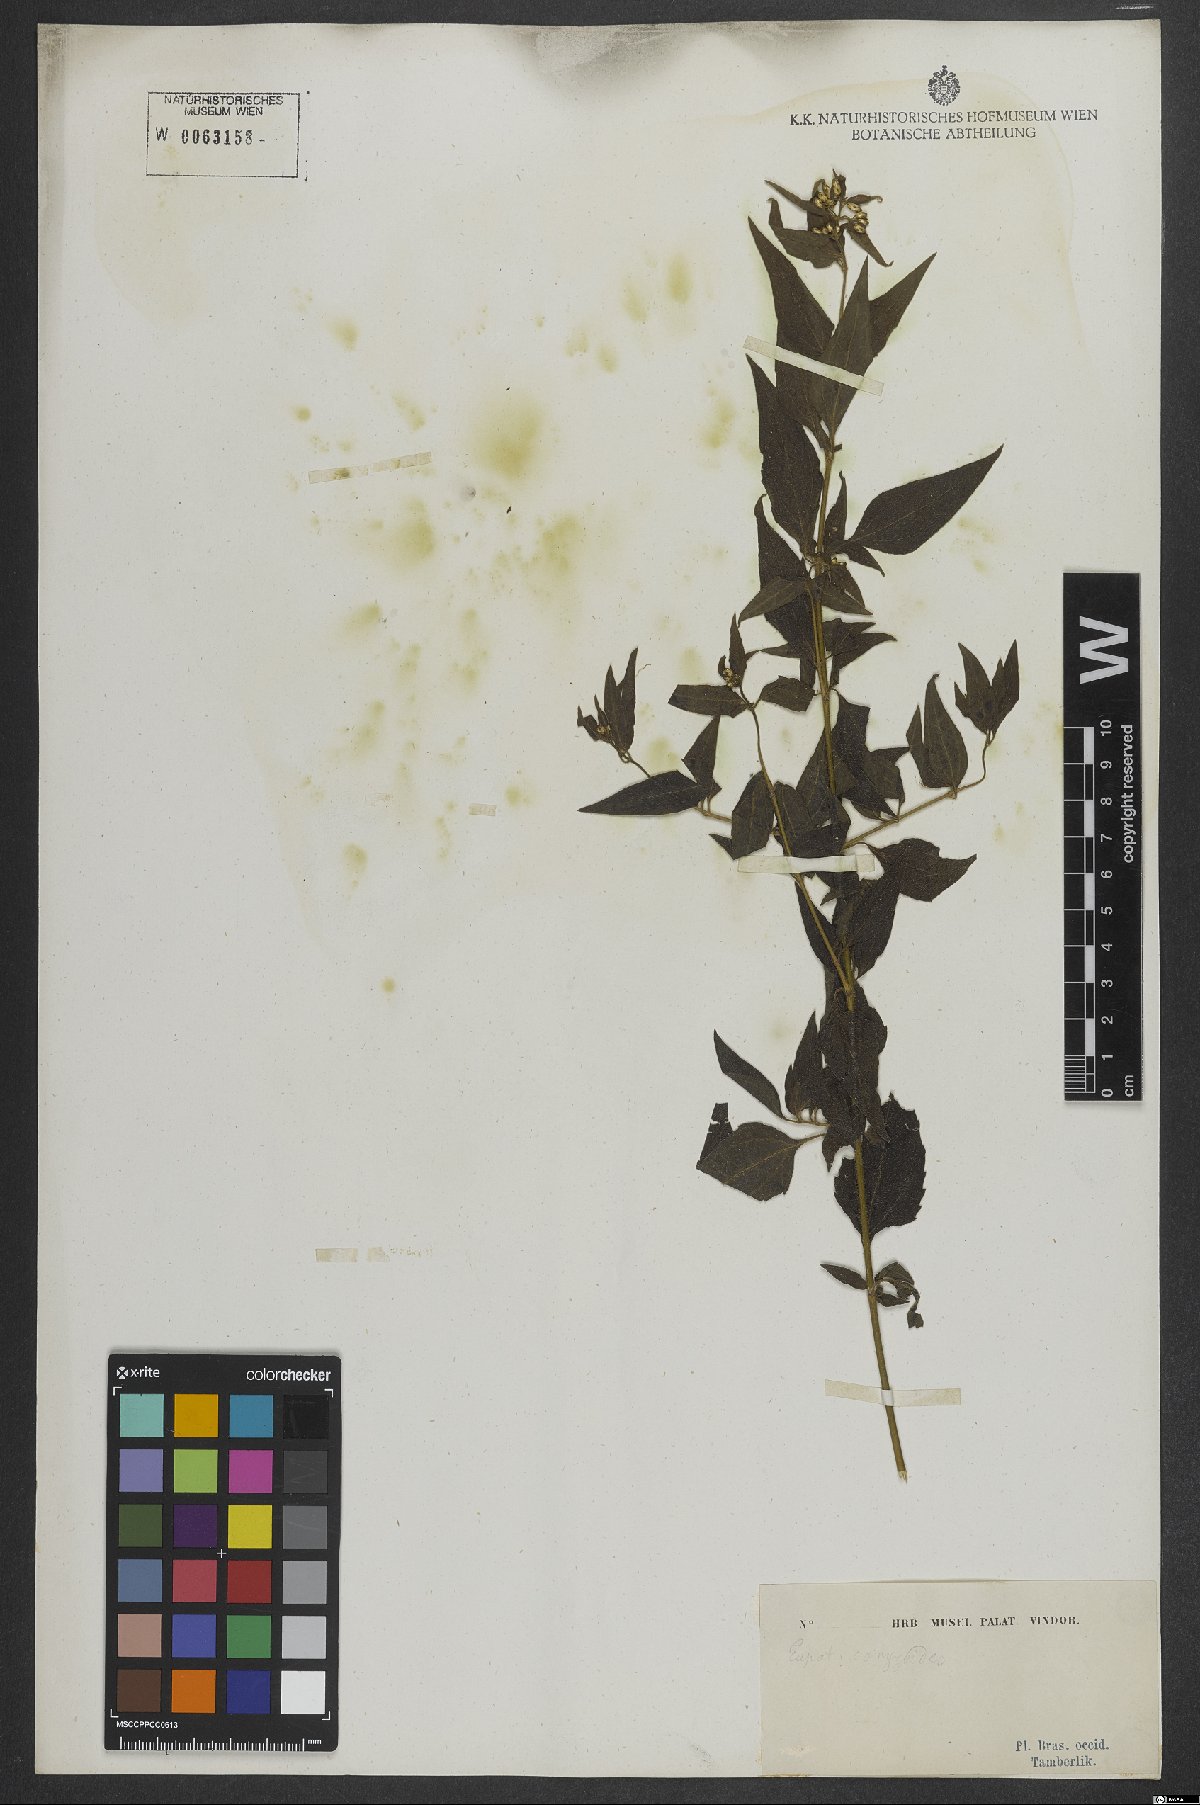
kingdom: Plantae
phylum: Tracheophyta
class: Magnoliopsida
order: Asterales
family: Asteraceae
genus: Chromolaena
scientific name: Chromolaena odorata
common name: Siamweed
